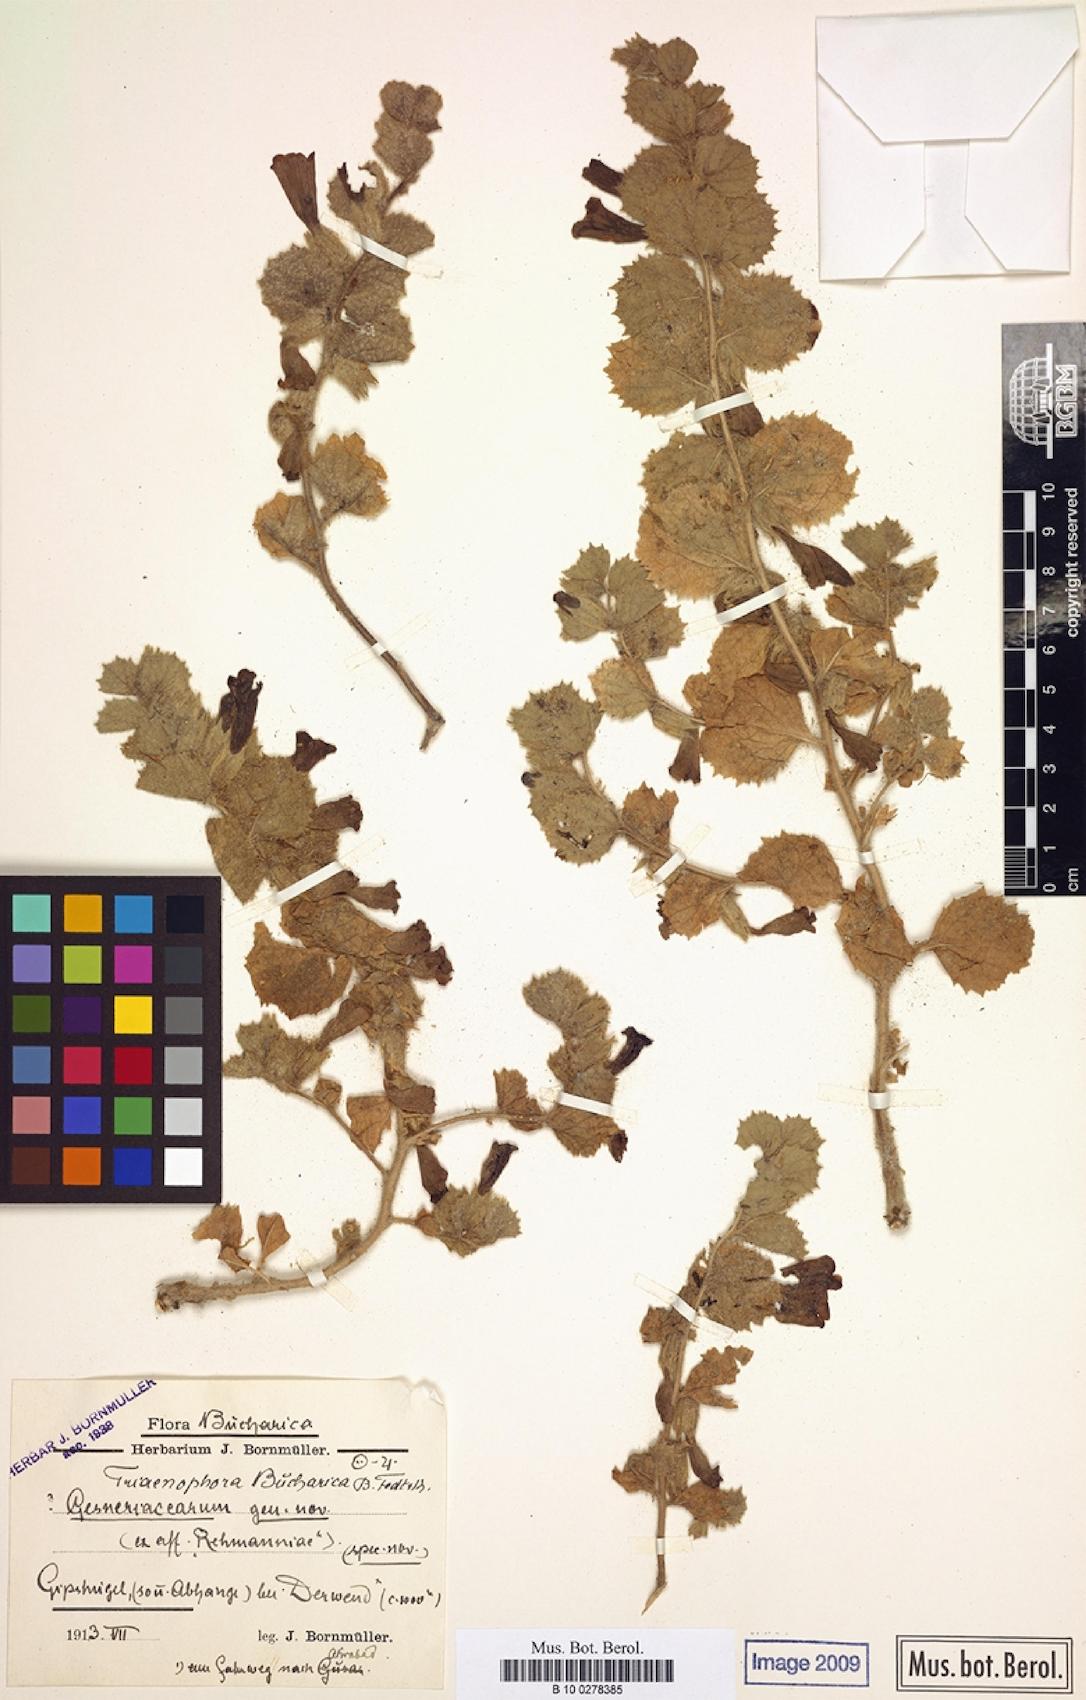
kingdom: Plantae
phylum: Tracheophyta
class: Magnoliopsida
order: Lamiales
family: Rehmanniaceae
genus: Triaenophora
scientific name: Triaenophora bucharica
